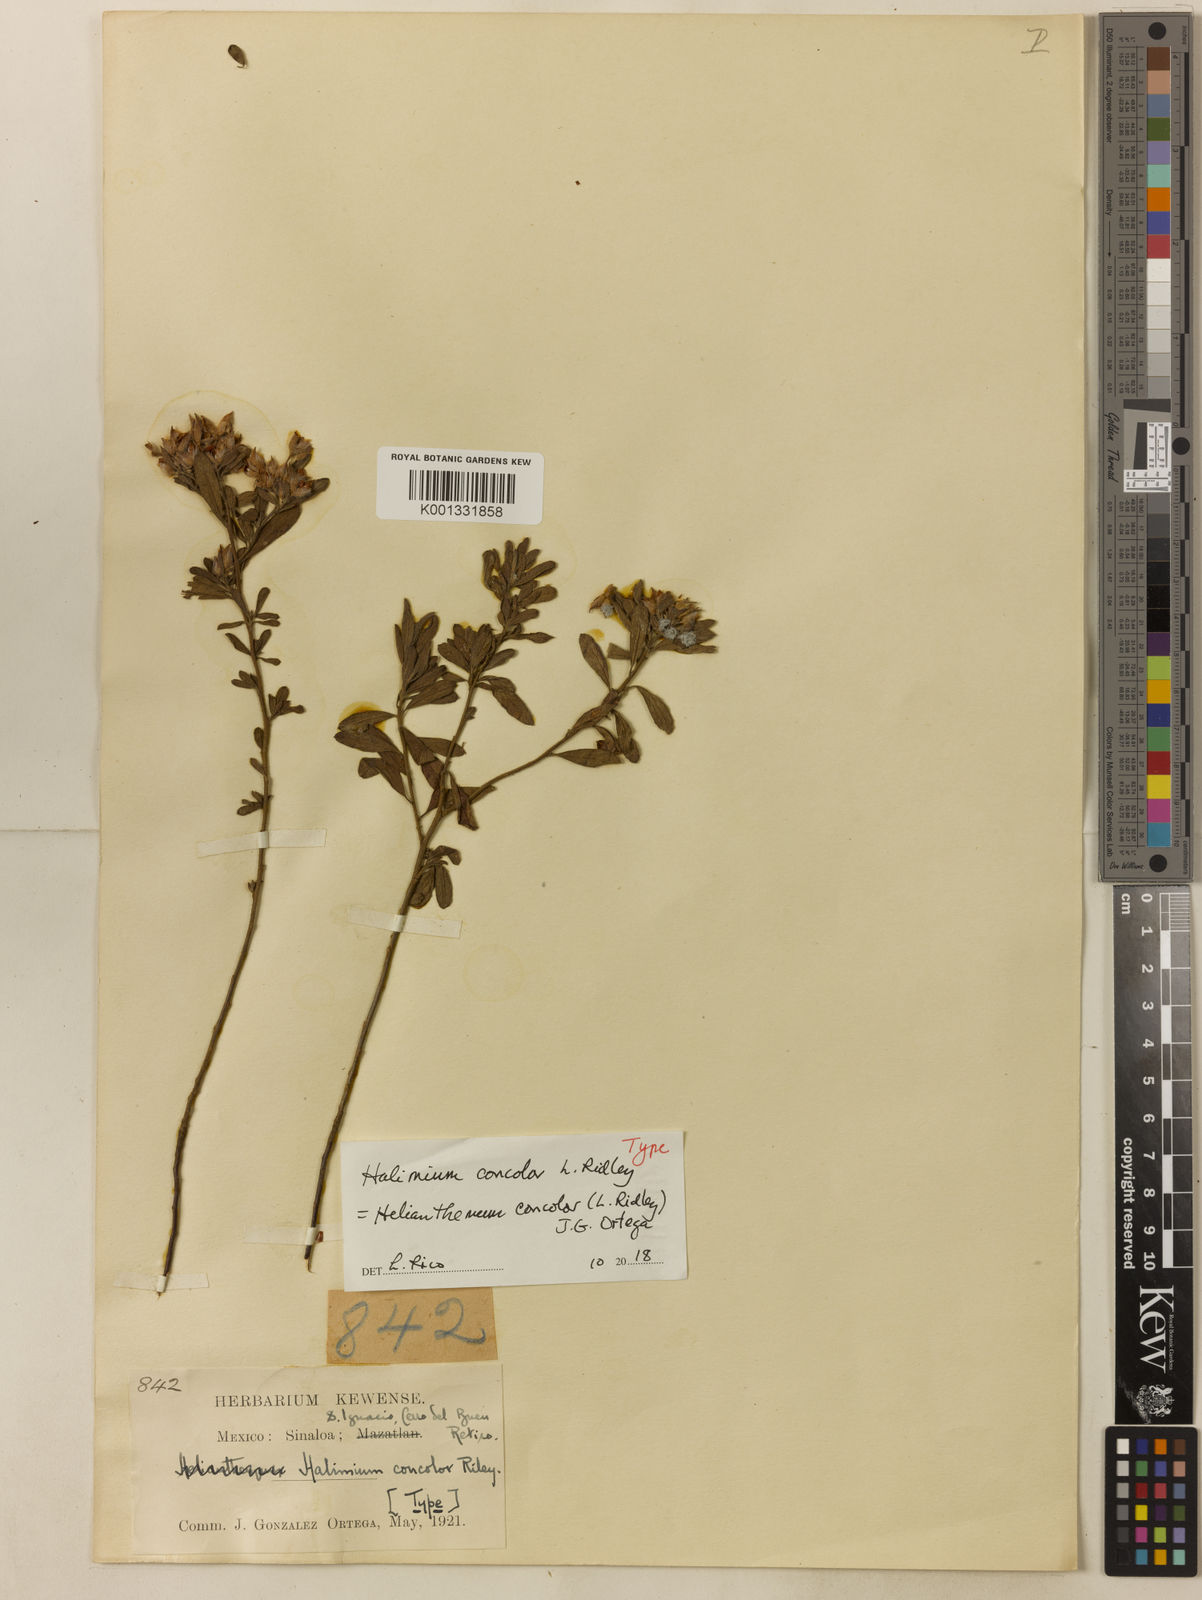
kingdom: Plantae
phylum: Tracheophyta
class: Magnoliopsida
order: Malvales
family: Cistaceae
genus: Crocanthemum
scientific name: Crocanthemum exaltatum
